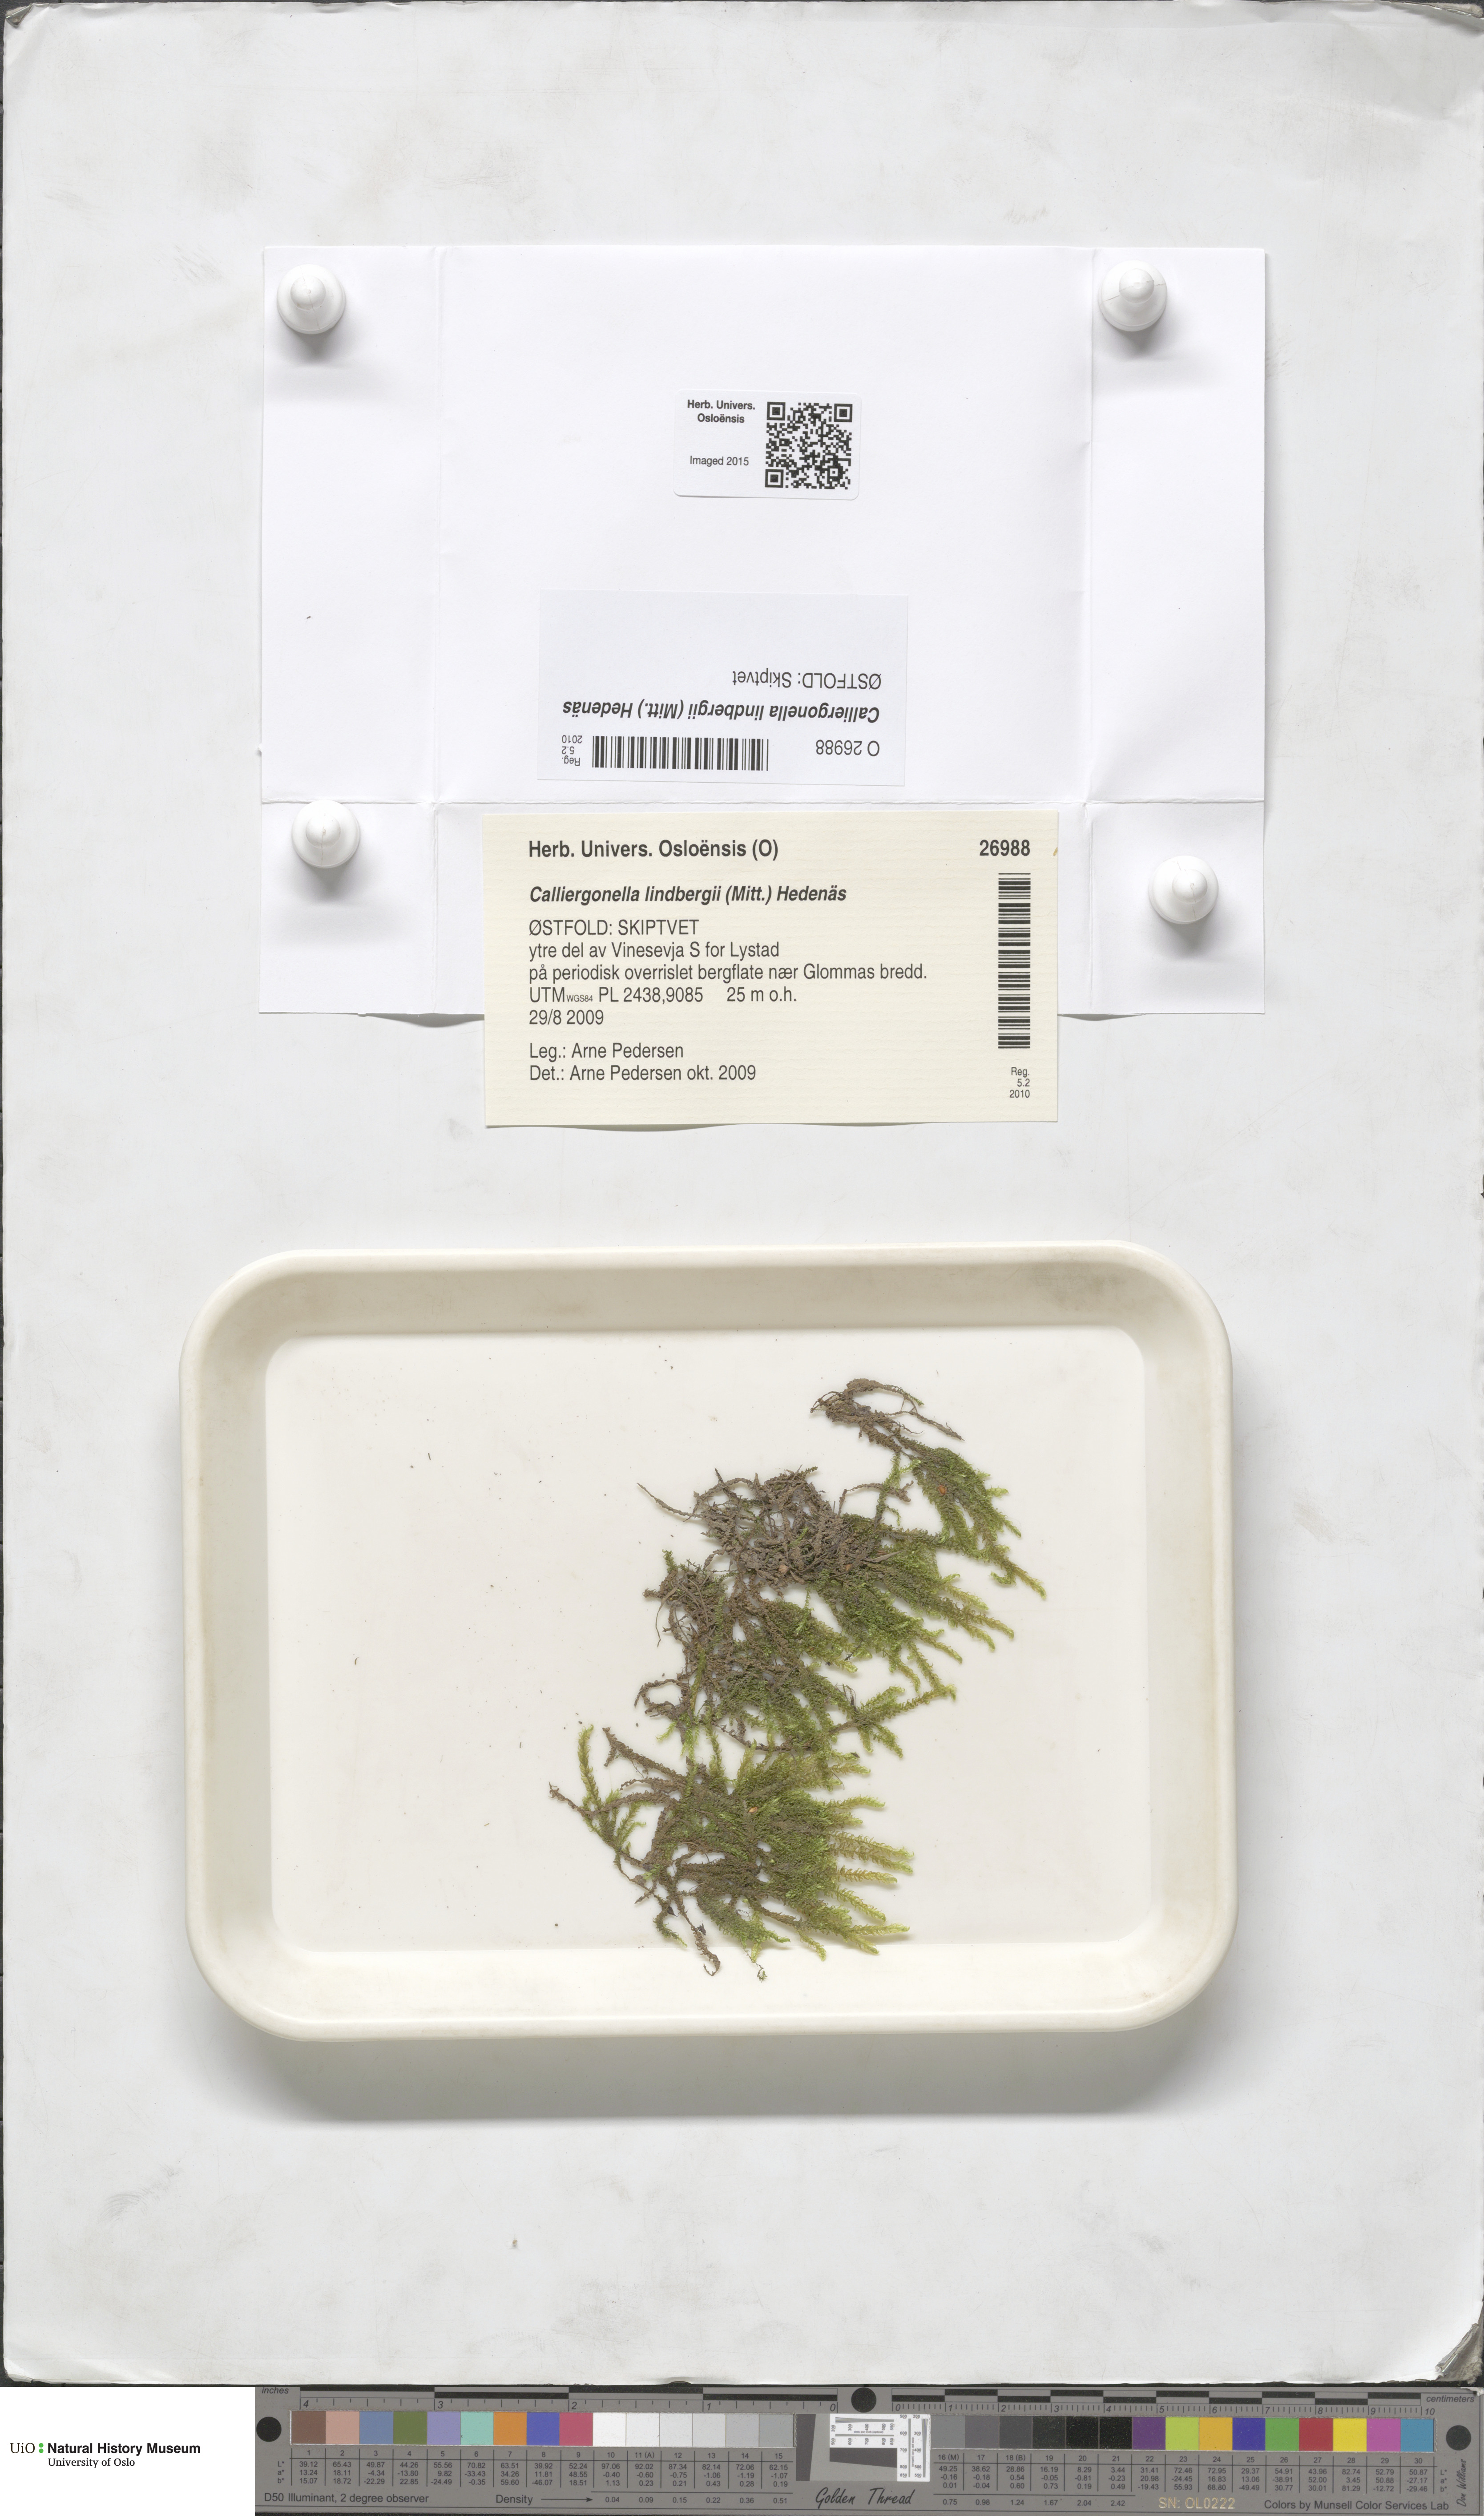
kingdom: Plantae
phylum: Bryophyta
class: Bryopsida
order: Hypnales
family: Pylaisiaceae
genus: Calliergonella
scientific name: Calliergonella lindbergii
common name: Lindberg's plait-moss
